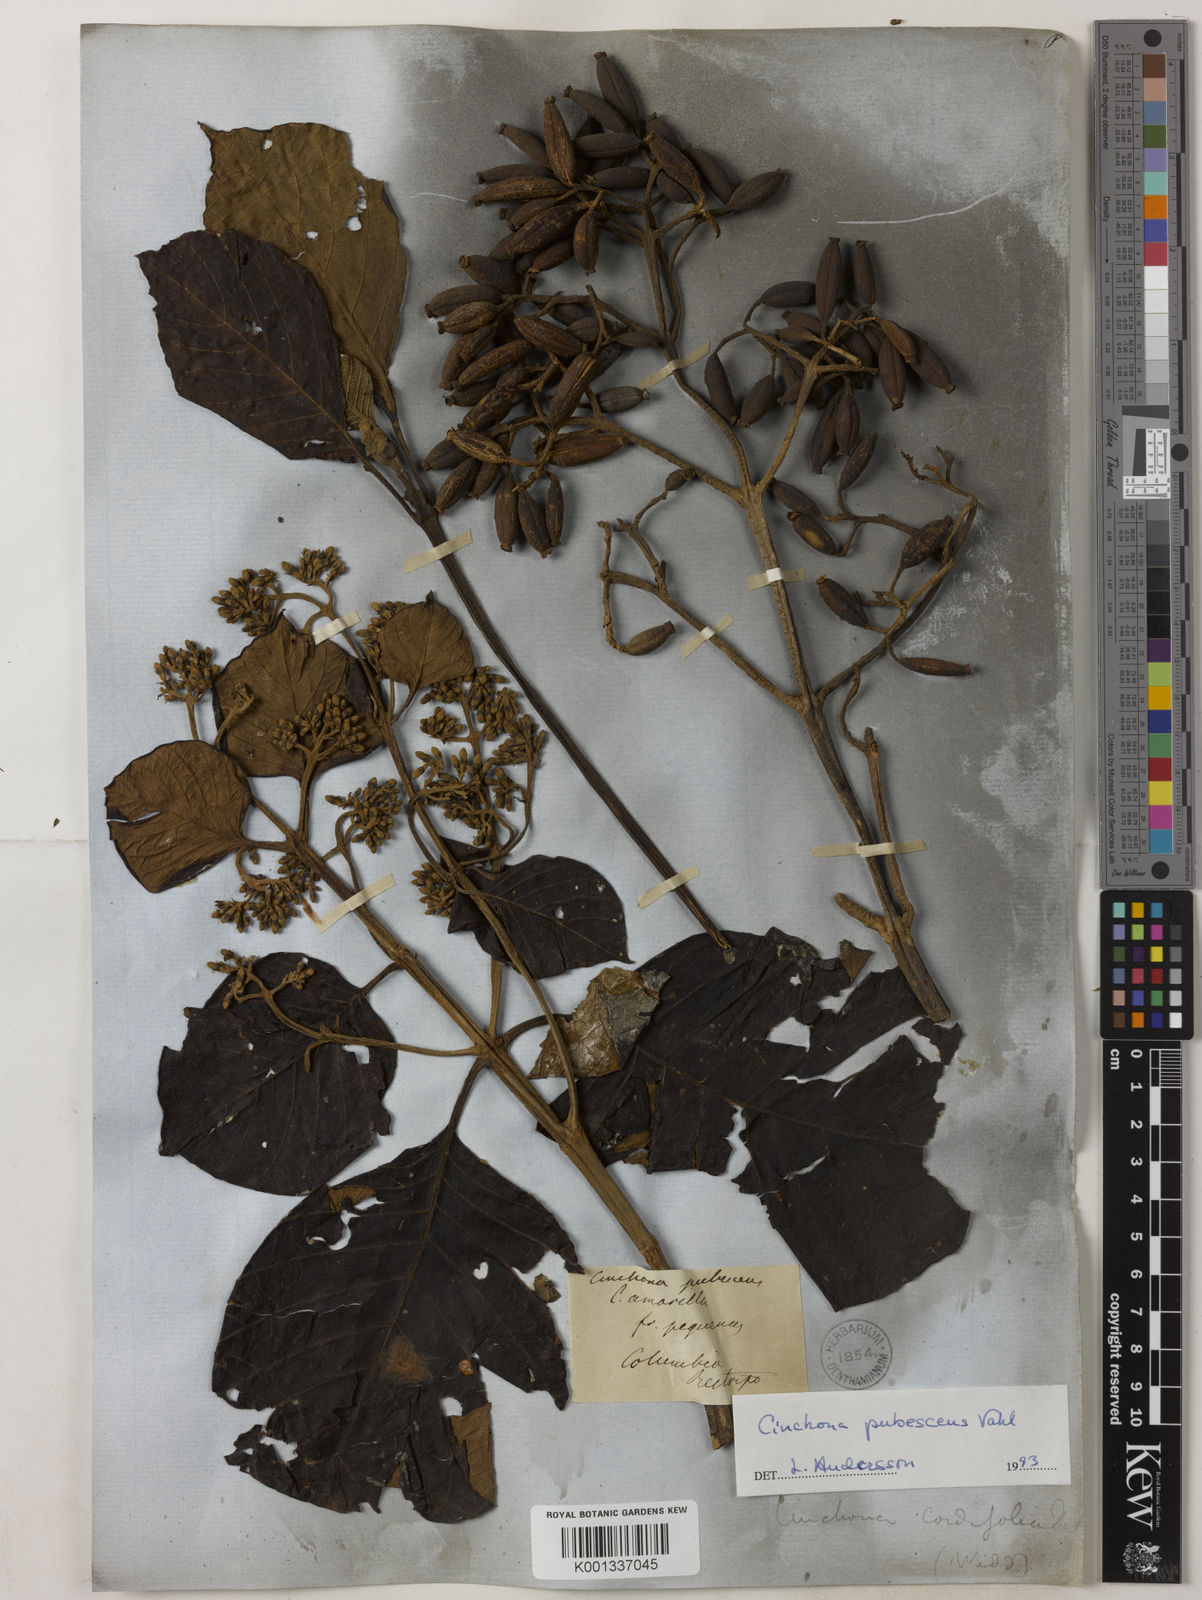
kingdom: Plantae
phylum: Tracheophyta
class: Magnoliopsida
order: Gentianales
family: Rubiaceae
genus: Cinchona
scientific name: Cinchona pubescens
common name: Quinine
